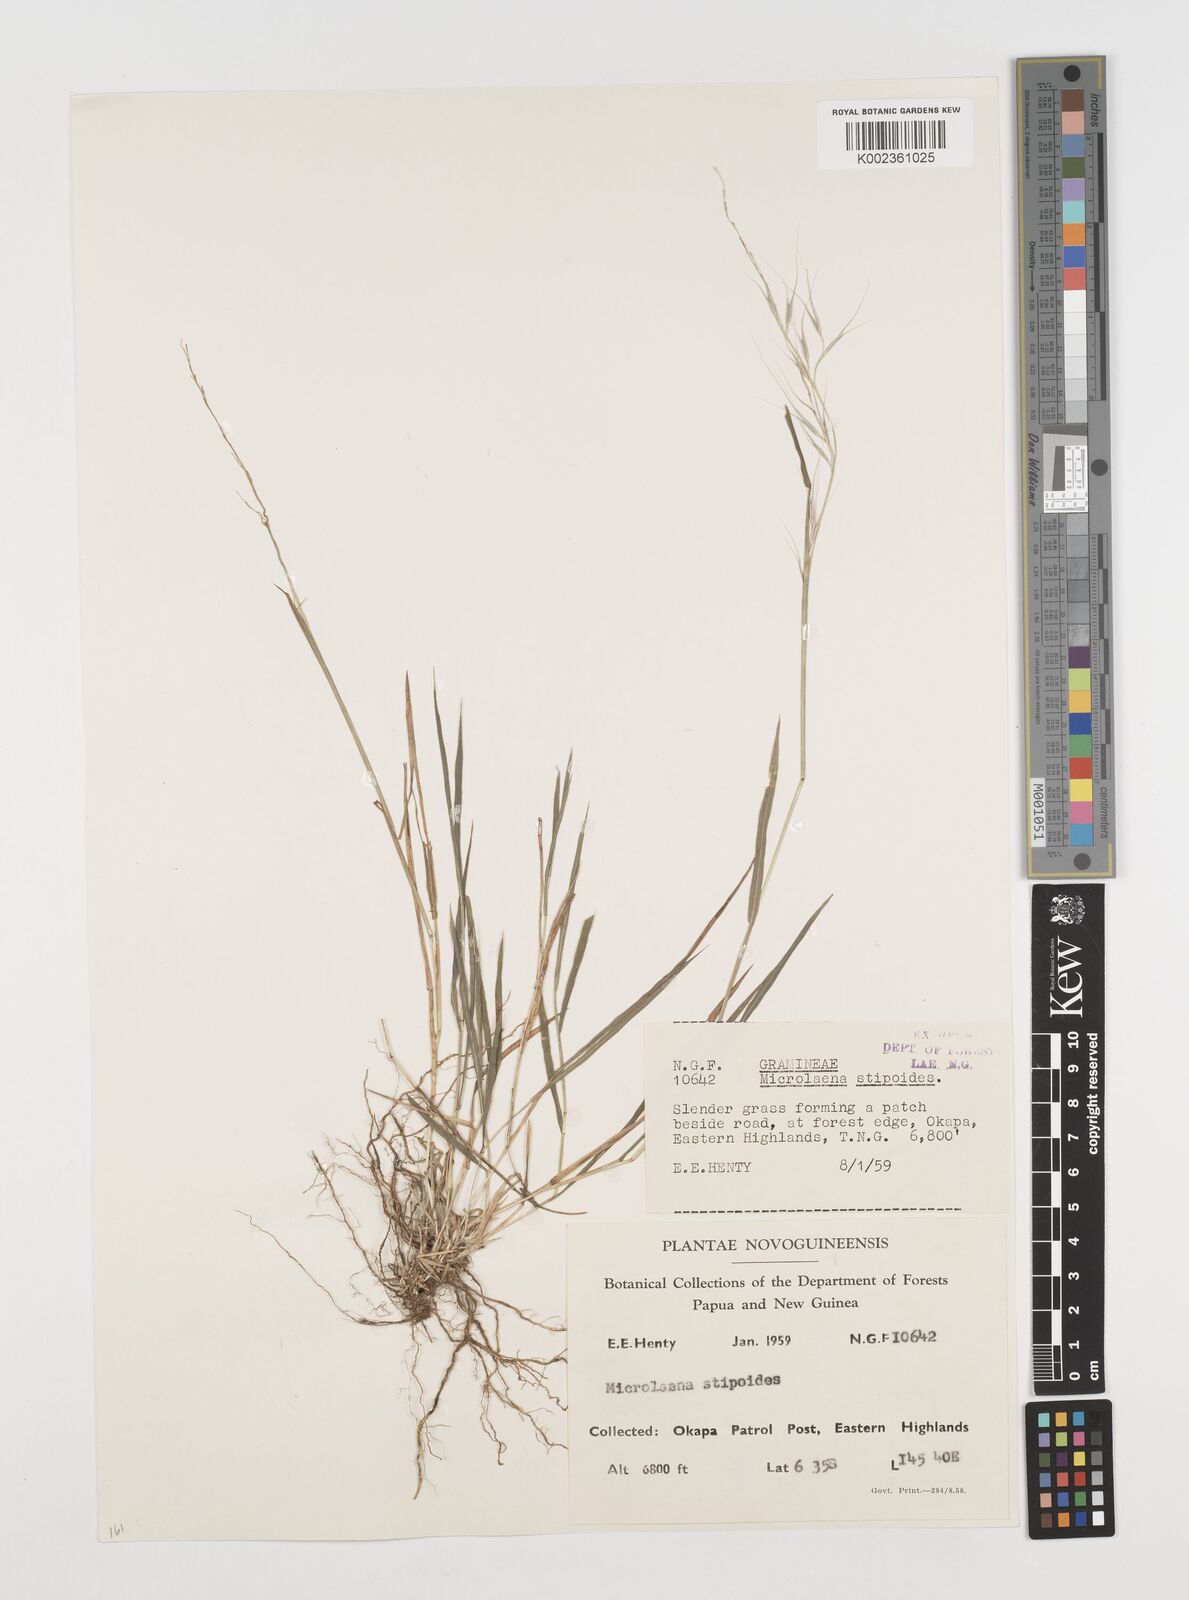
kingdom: Plantae
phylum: Tracheophyta
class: Liliopsida
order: Poales
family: Poaceae
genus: Microlaena
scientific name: Microlaena stipoides
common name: Meadow ricegrass
